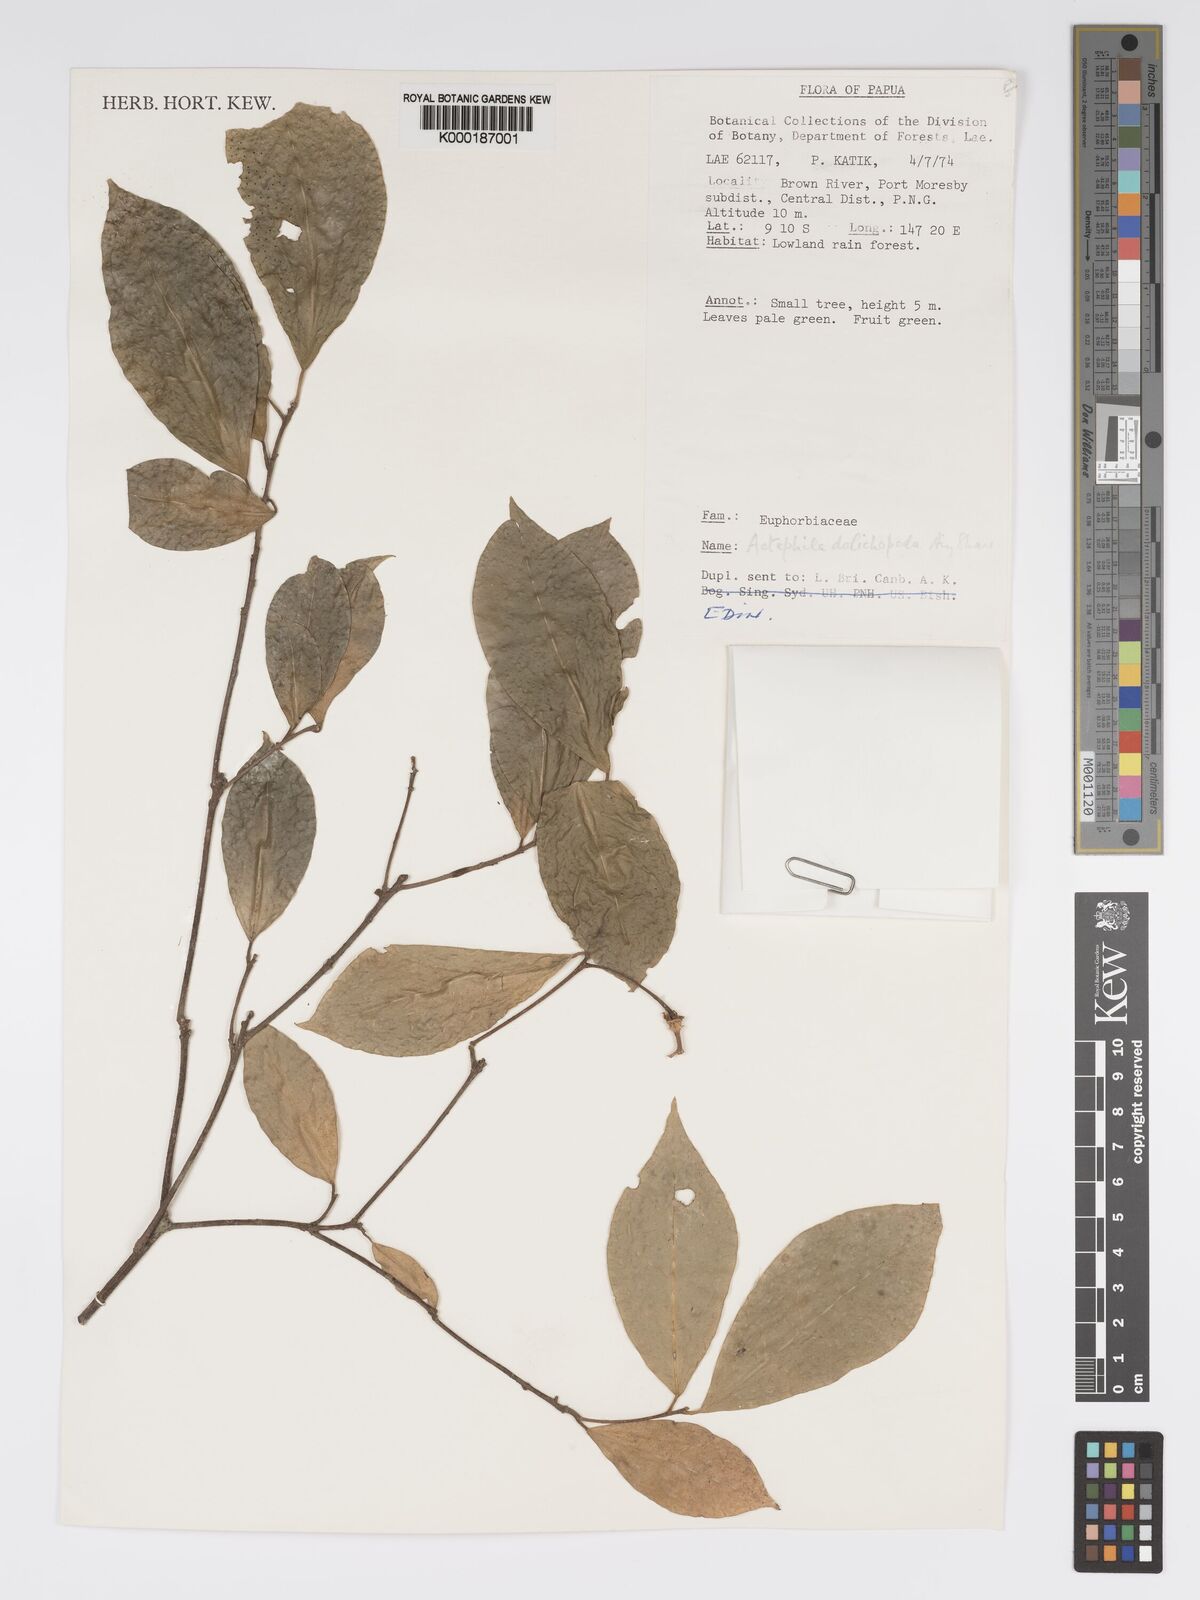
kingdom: Plantae
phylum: Tracheophyta
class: Magnoliopsida
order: Malpighiales
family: Phyllanthaceae
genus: Actephila
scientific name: Actephila dolichopoda
